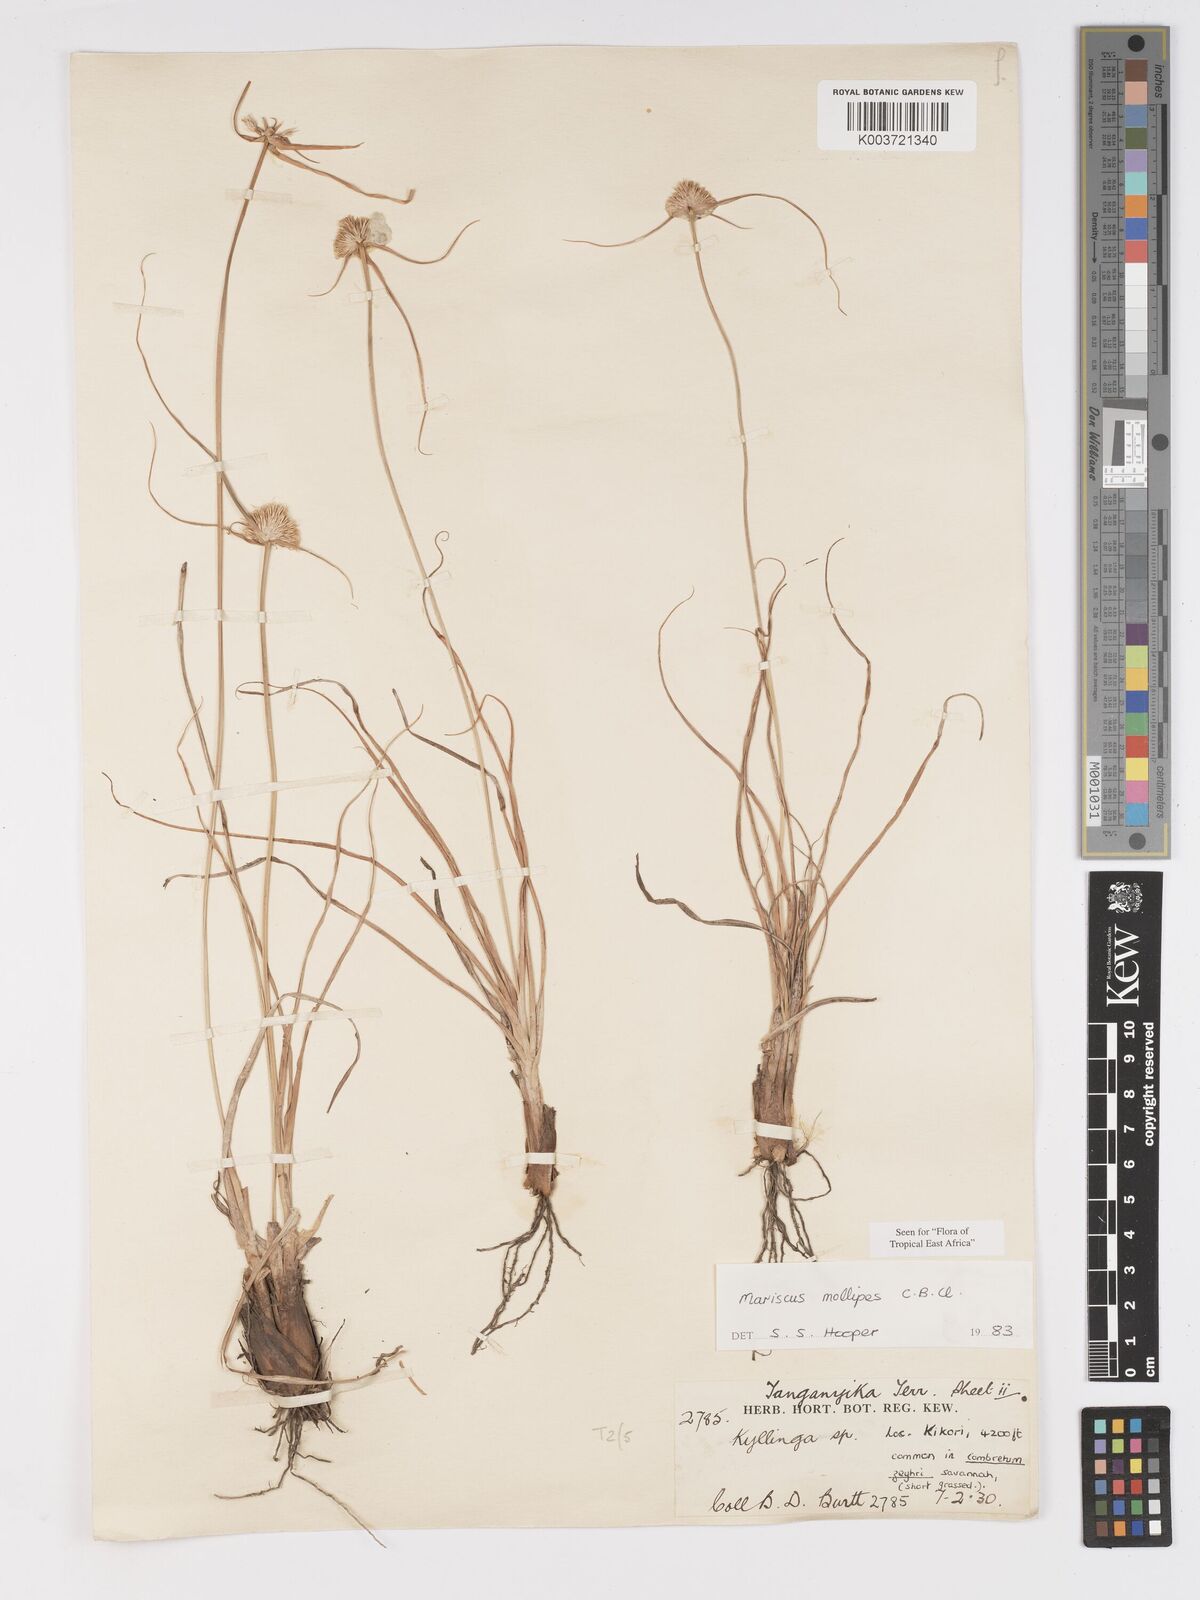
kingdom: Plantae
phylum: Tracheophyta
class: Liliopsida
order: Poales
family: Cyperaceae
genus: Cyperus
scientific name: Cyperus mollipes
